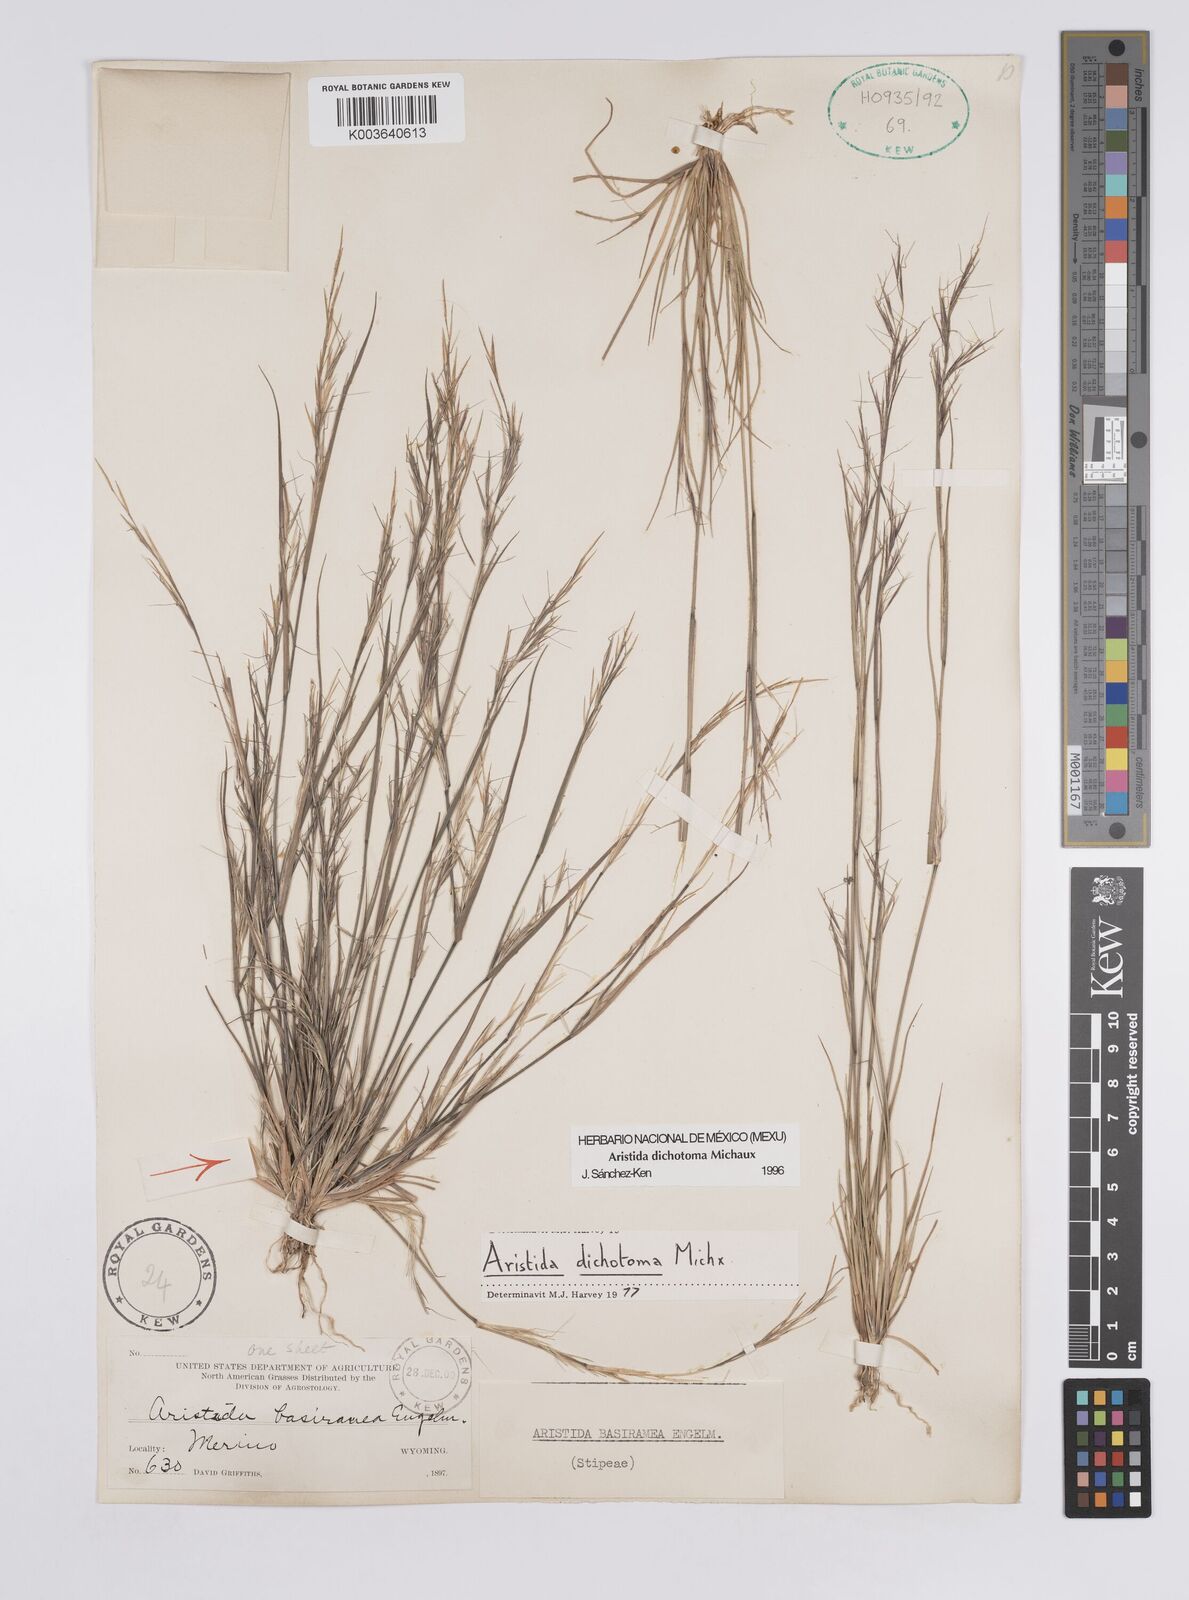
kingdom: Plantae
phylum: Tracheophyta
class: Liliopsida
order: Poales
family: Poaceae
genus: Aristida
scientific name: Aristida dichotoma
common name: Churchmouse three-awn
